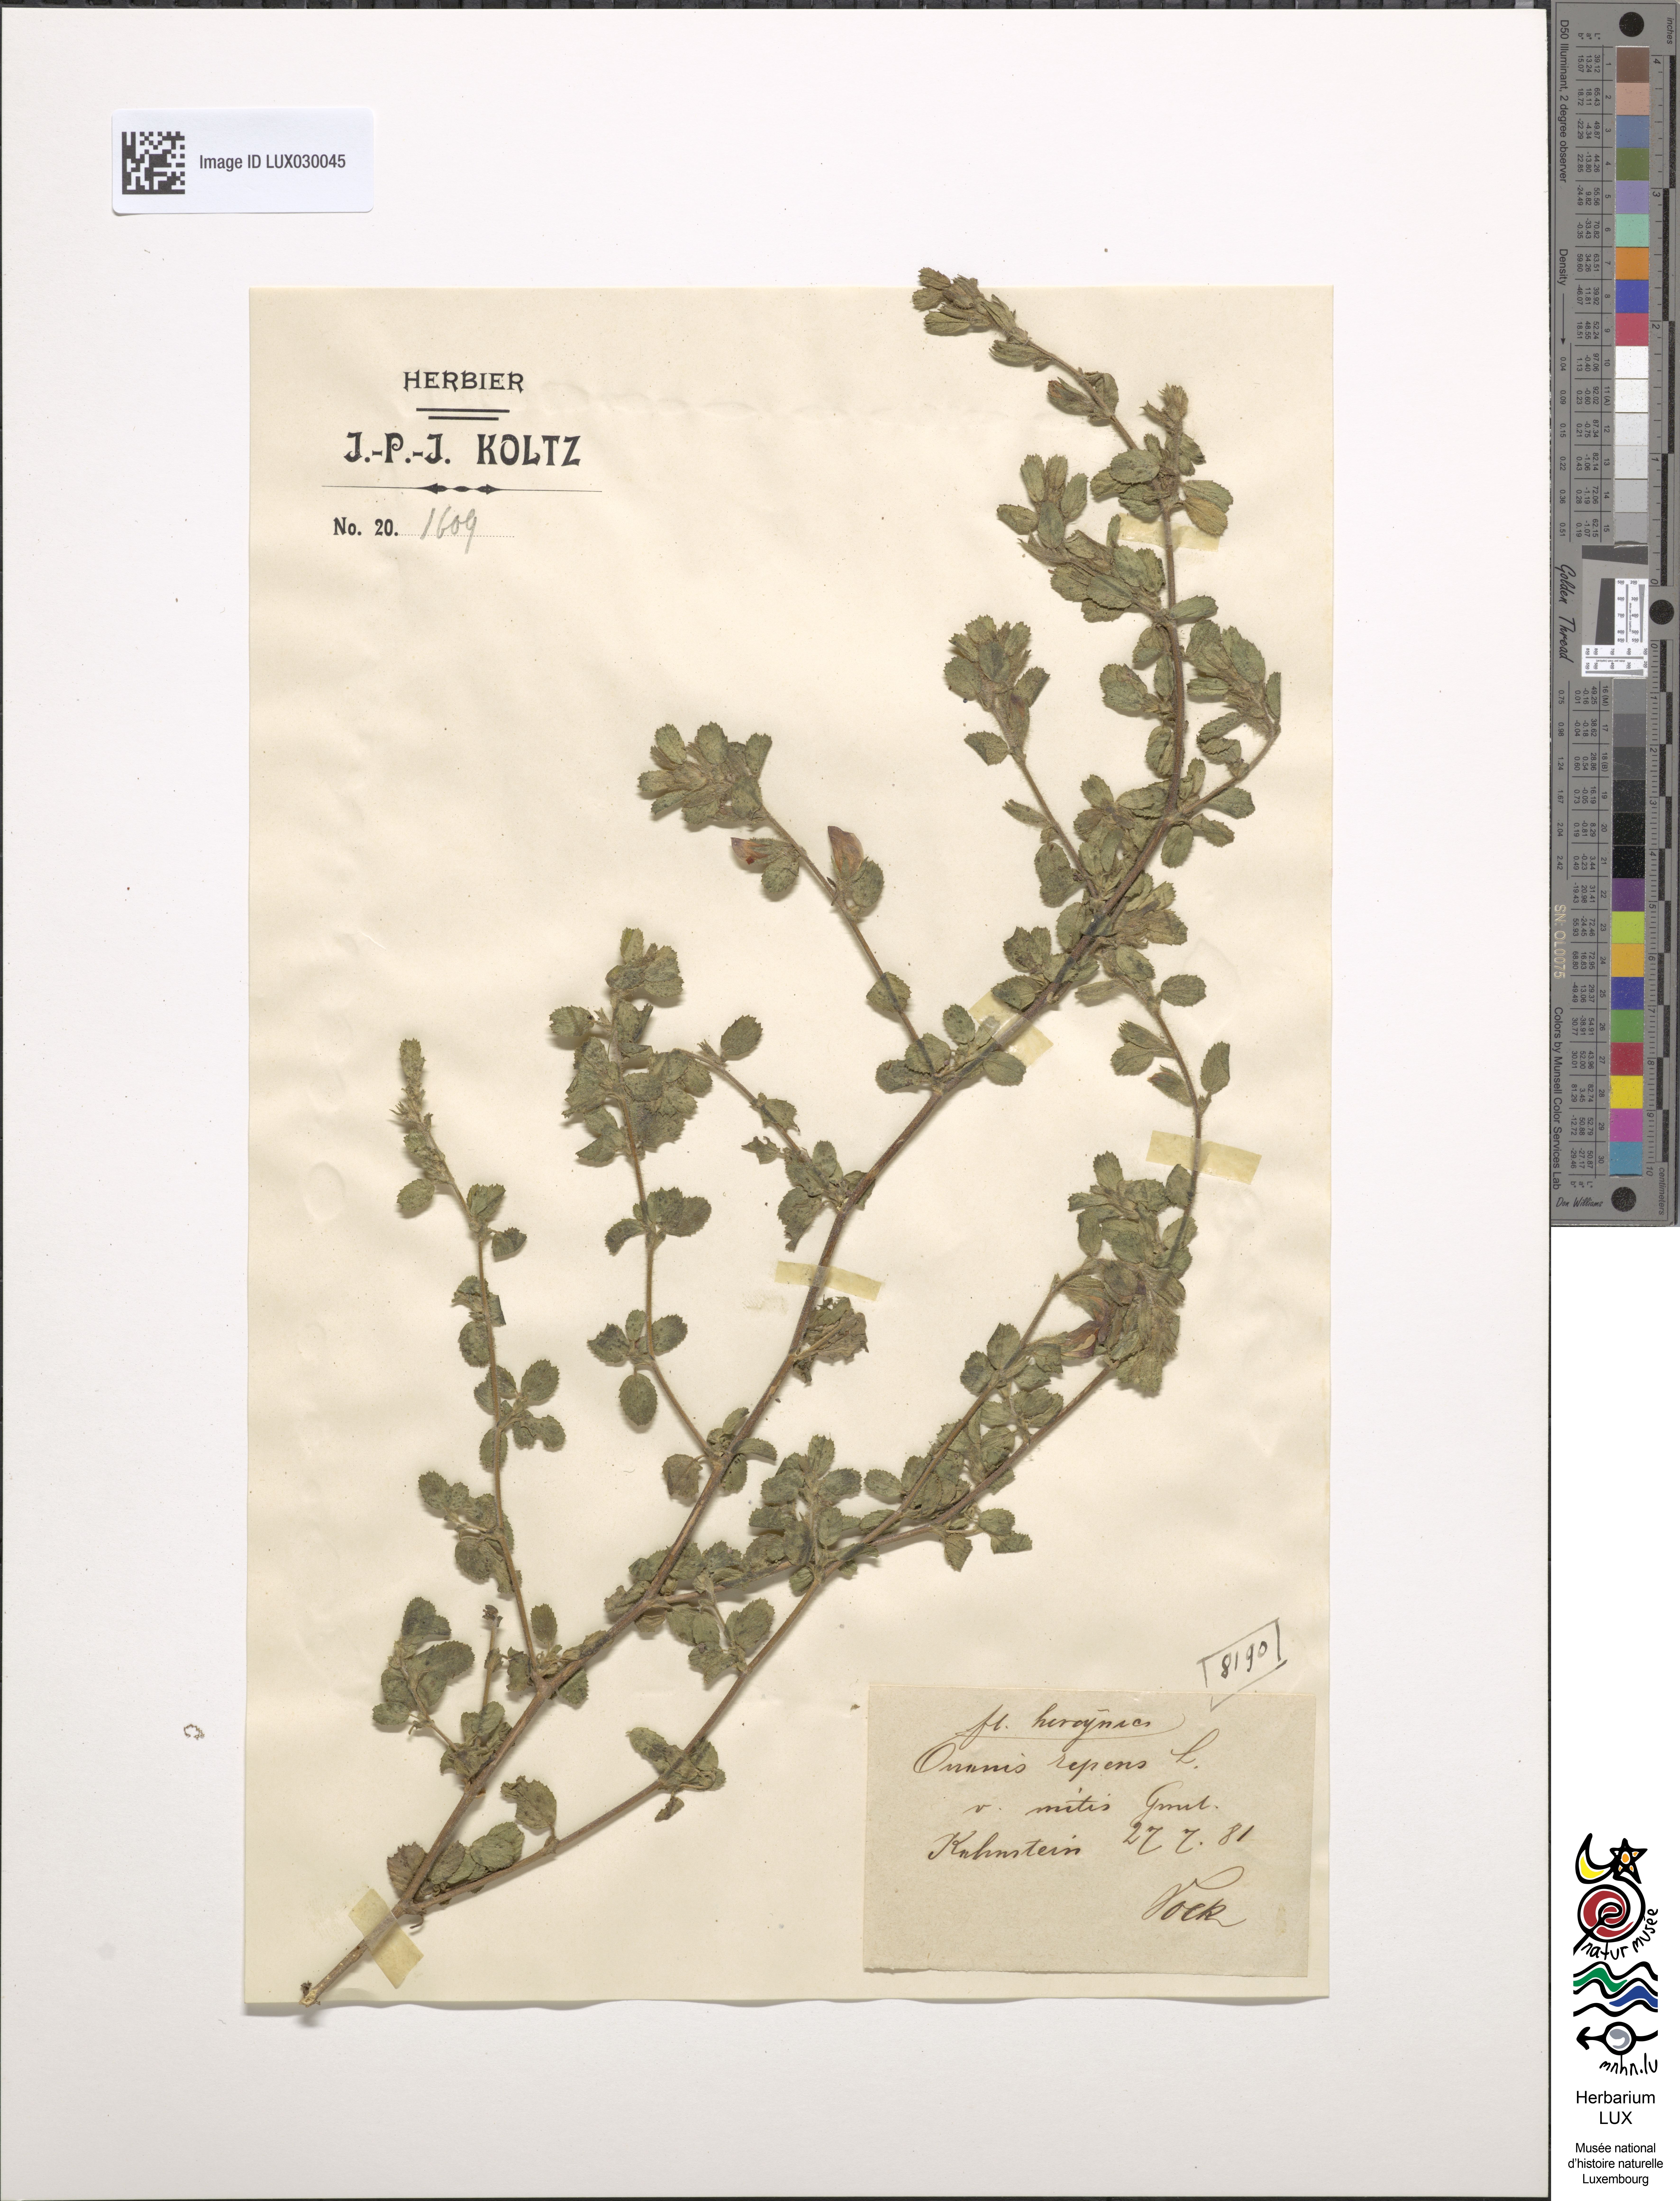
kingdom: Plantae
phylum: Tracheophyta
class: Magnoliopsida
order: Fabales
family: Fabaceae
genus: Ononis
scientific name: Ononis spinosa
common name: Spiny restharrow
